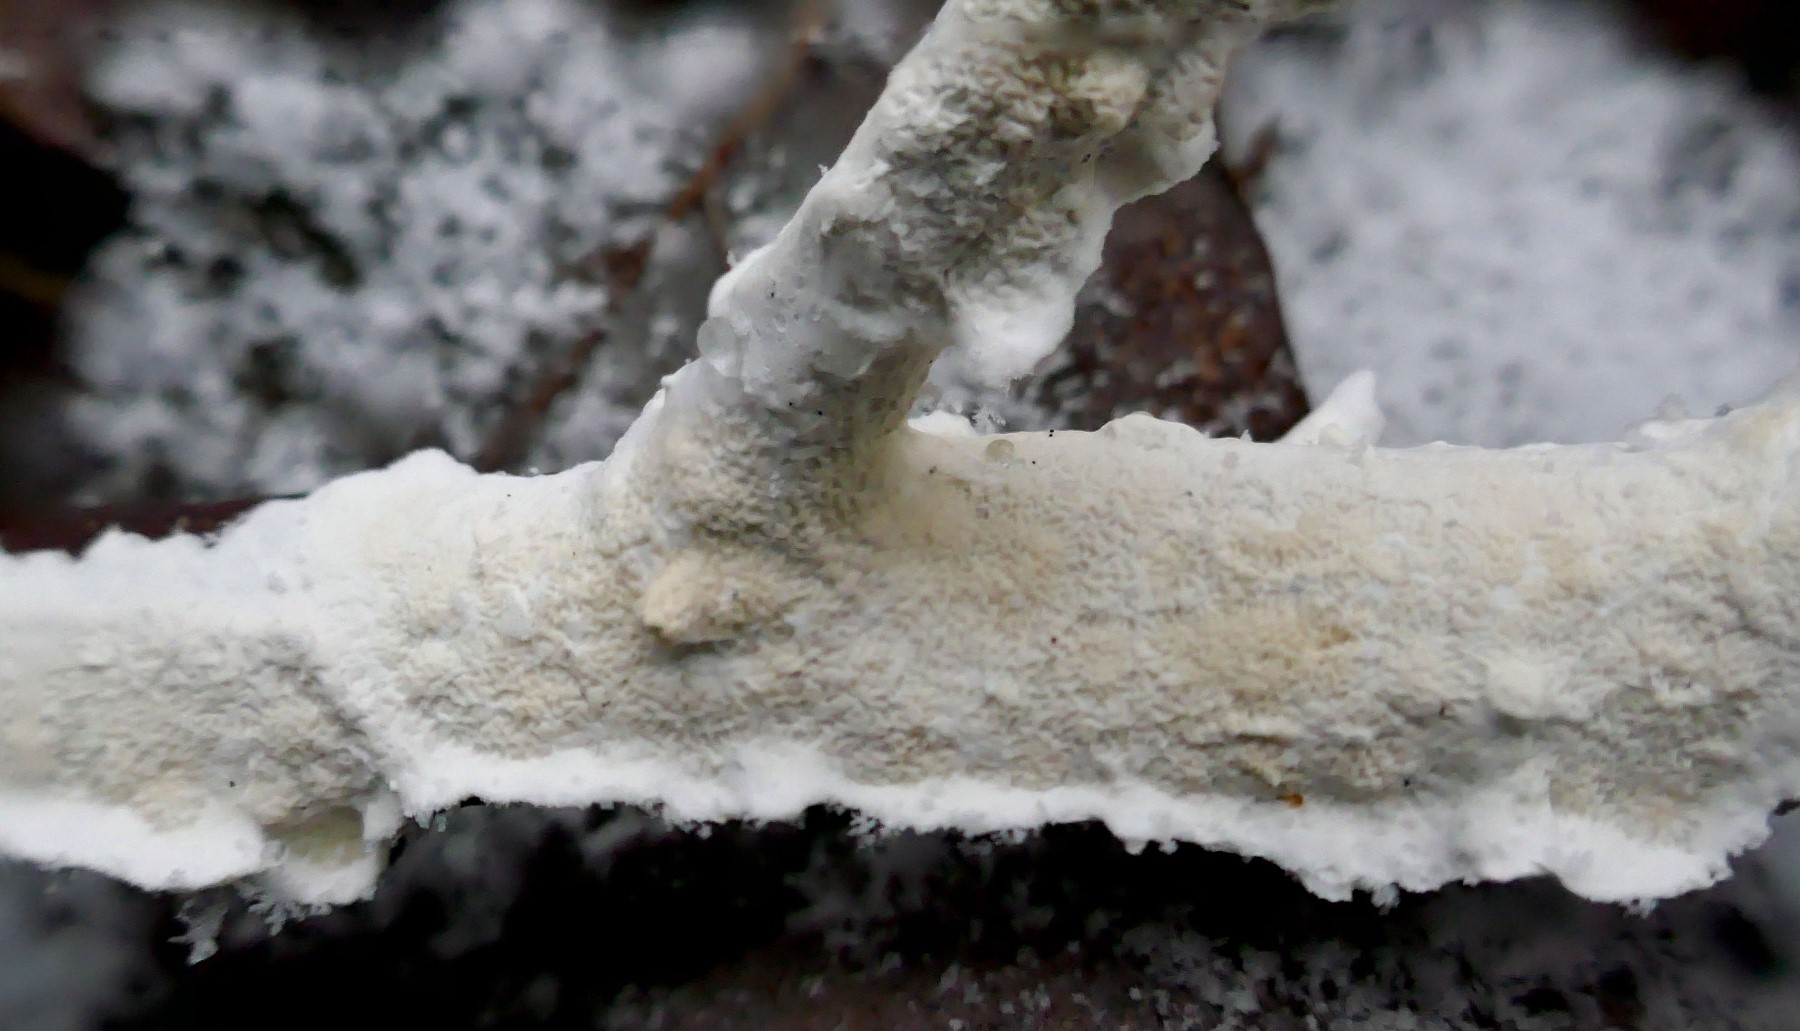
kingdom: Fungi
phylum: Basidiomycota
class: Agaricomycetes
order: Polyporales
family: Irpicaceae
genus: Byssomerulius
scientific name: Byssomerulius corium
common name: læder-åresvamp
